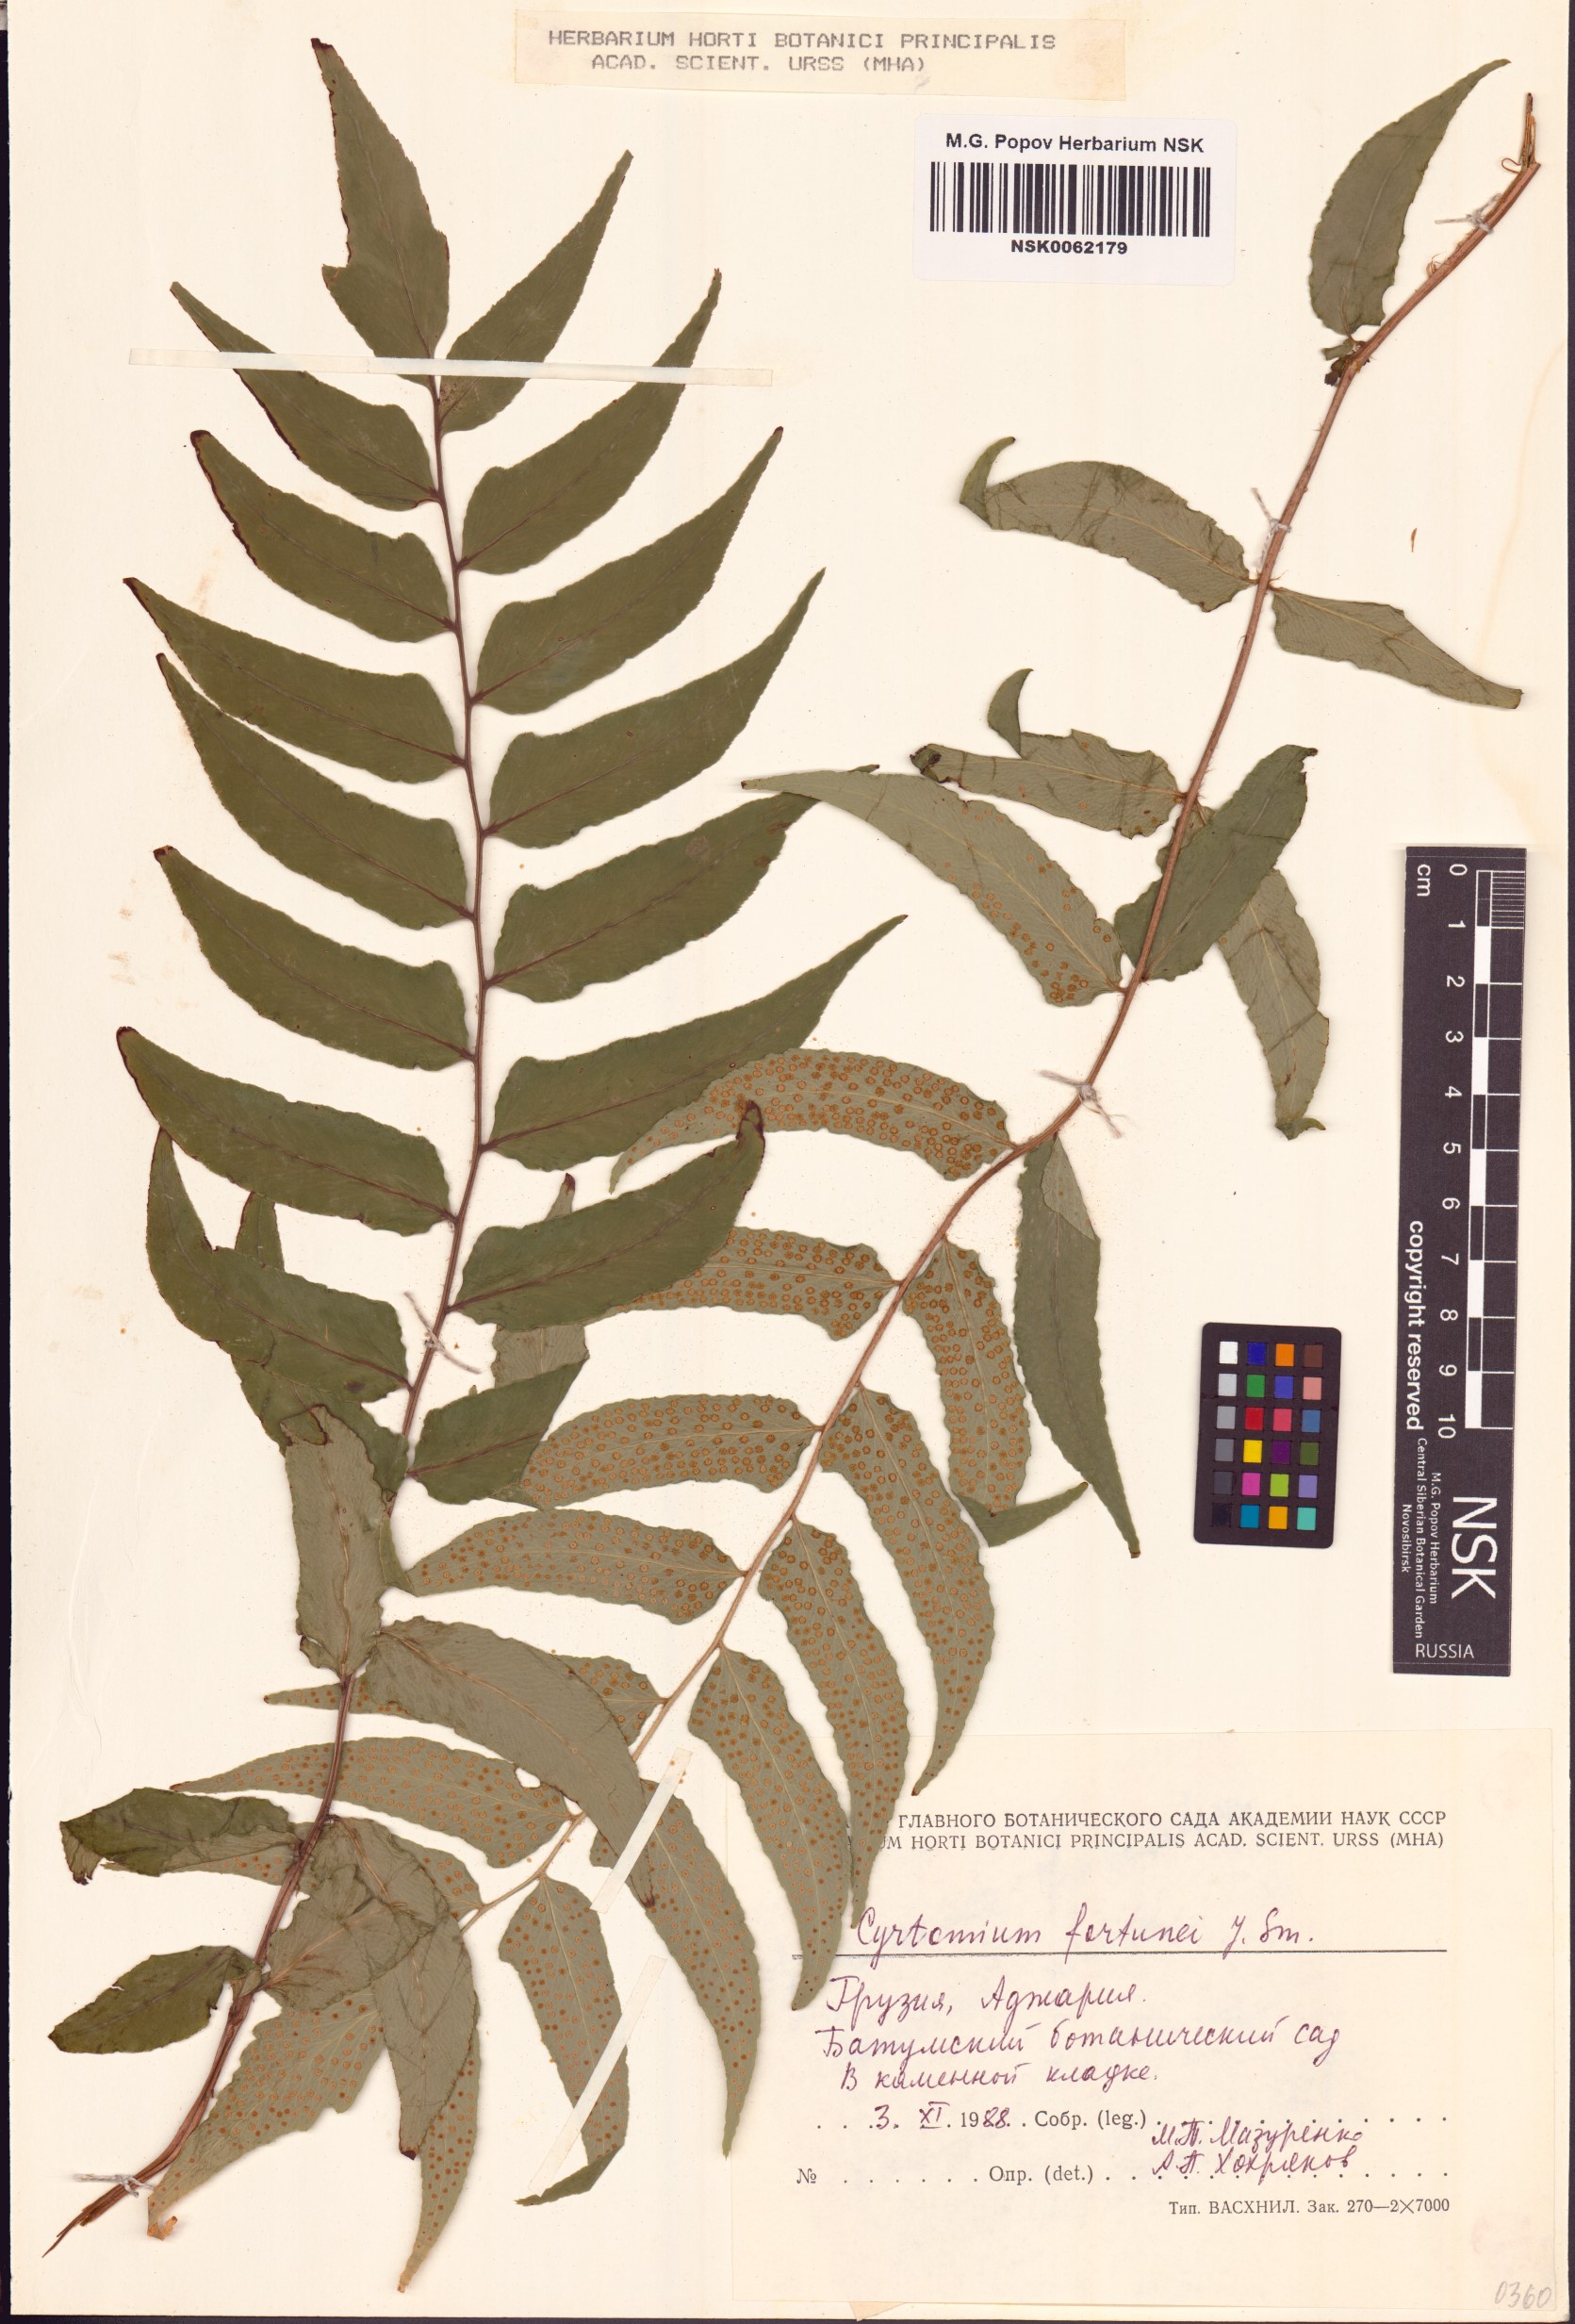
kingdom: Plantae
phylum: Tracheophyta
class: Polypodiopsida
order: Polypodiales
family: Dryopteridaceae
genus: Cyrtomium
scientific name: Cyrtomium fortunei
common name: Asian netvein hollyfern
